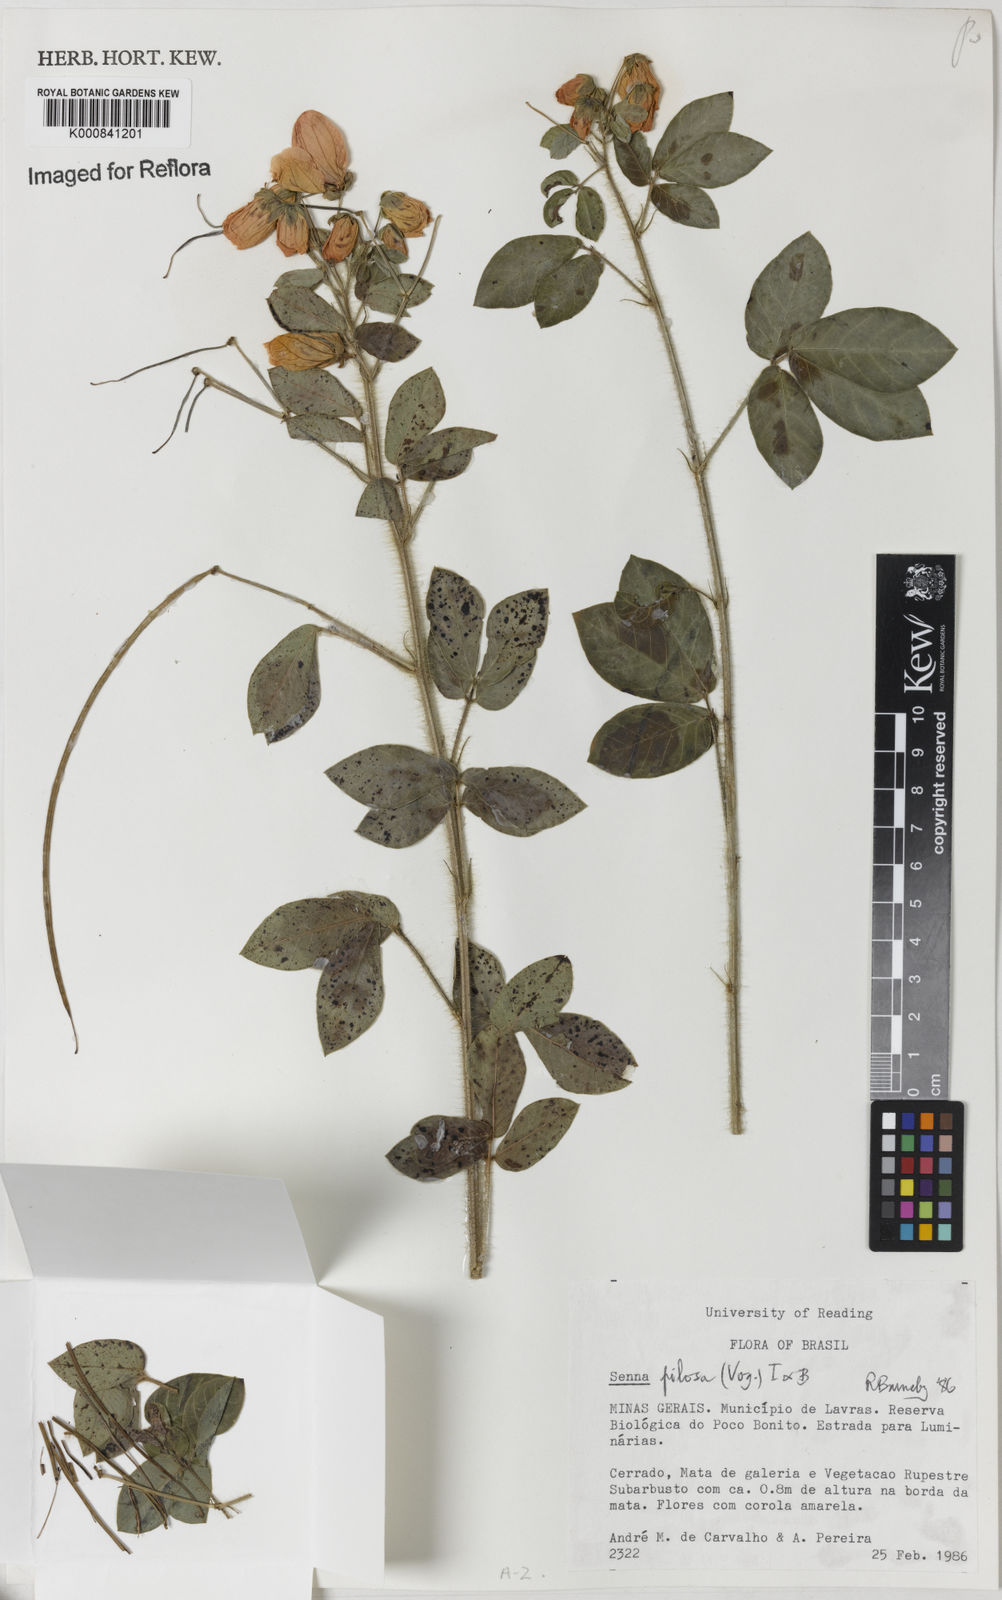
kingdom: Plantae
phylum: Tracheophyta
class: Magnoliopsida
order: Fabales
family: Fabaceae
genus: Senna
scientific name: Senna
